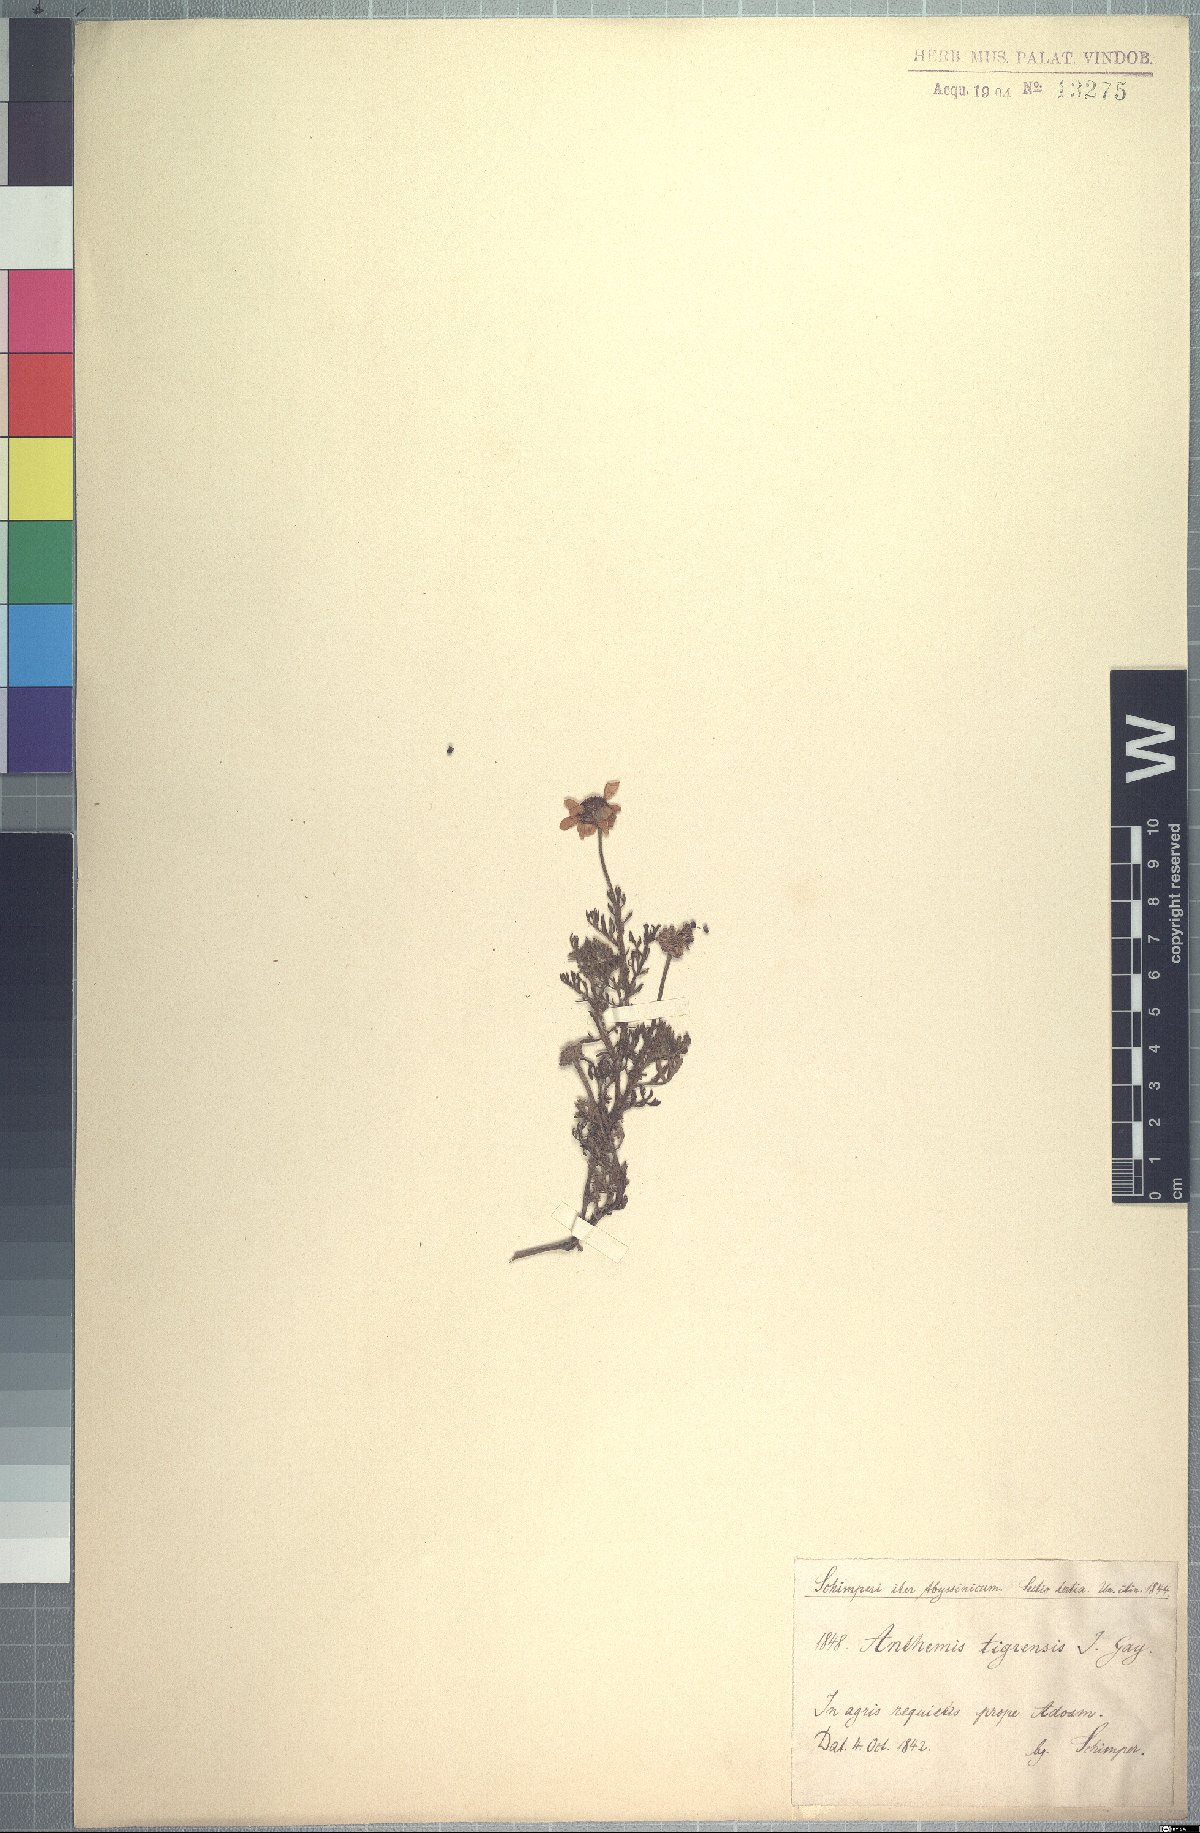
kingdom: Plantae
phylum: Tracheophyta
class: Magnoliopsida
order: Asterales
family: Asteraceae
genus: Anthemis
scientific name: Anthemis tigreensis
